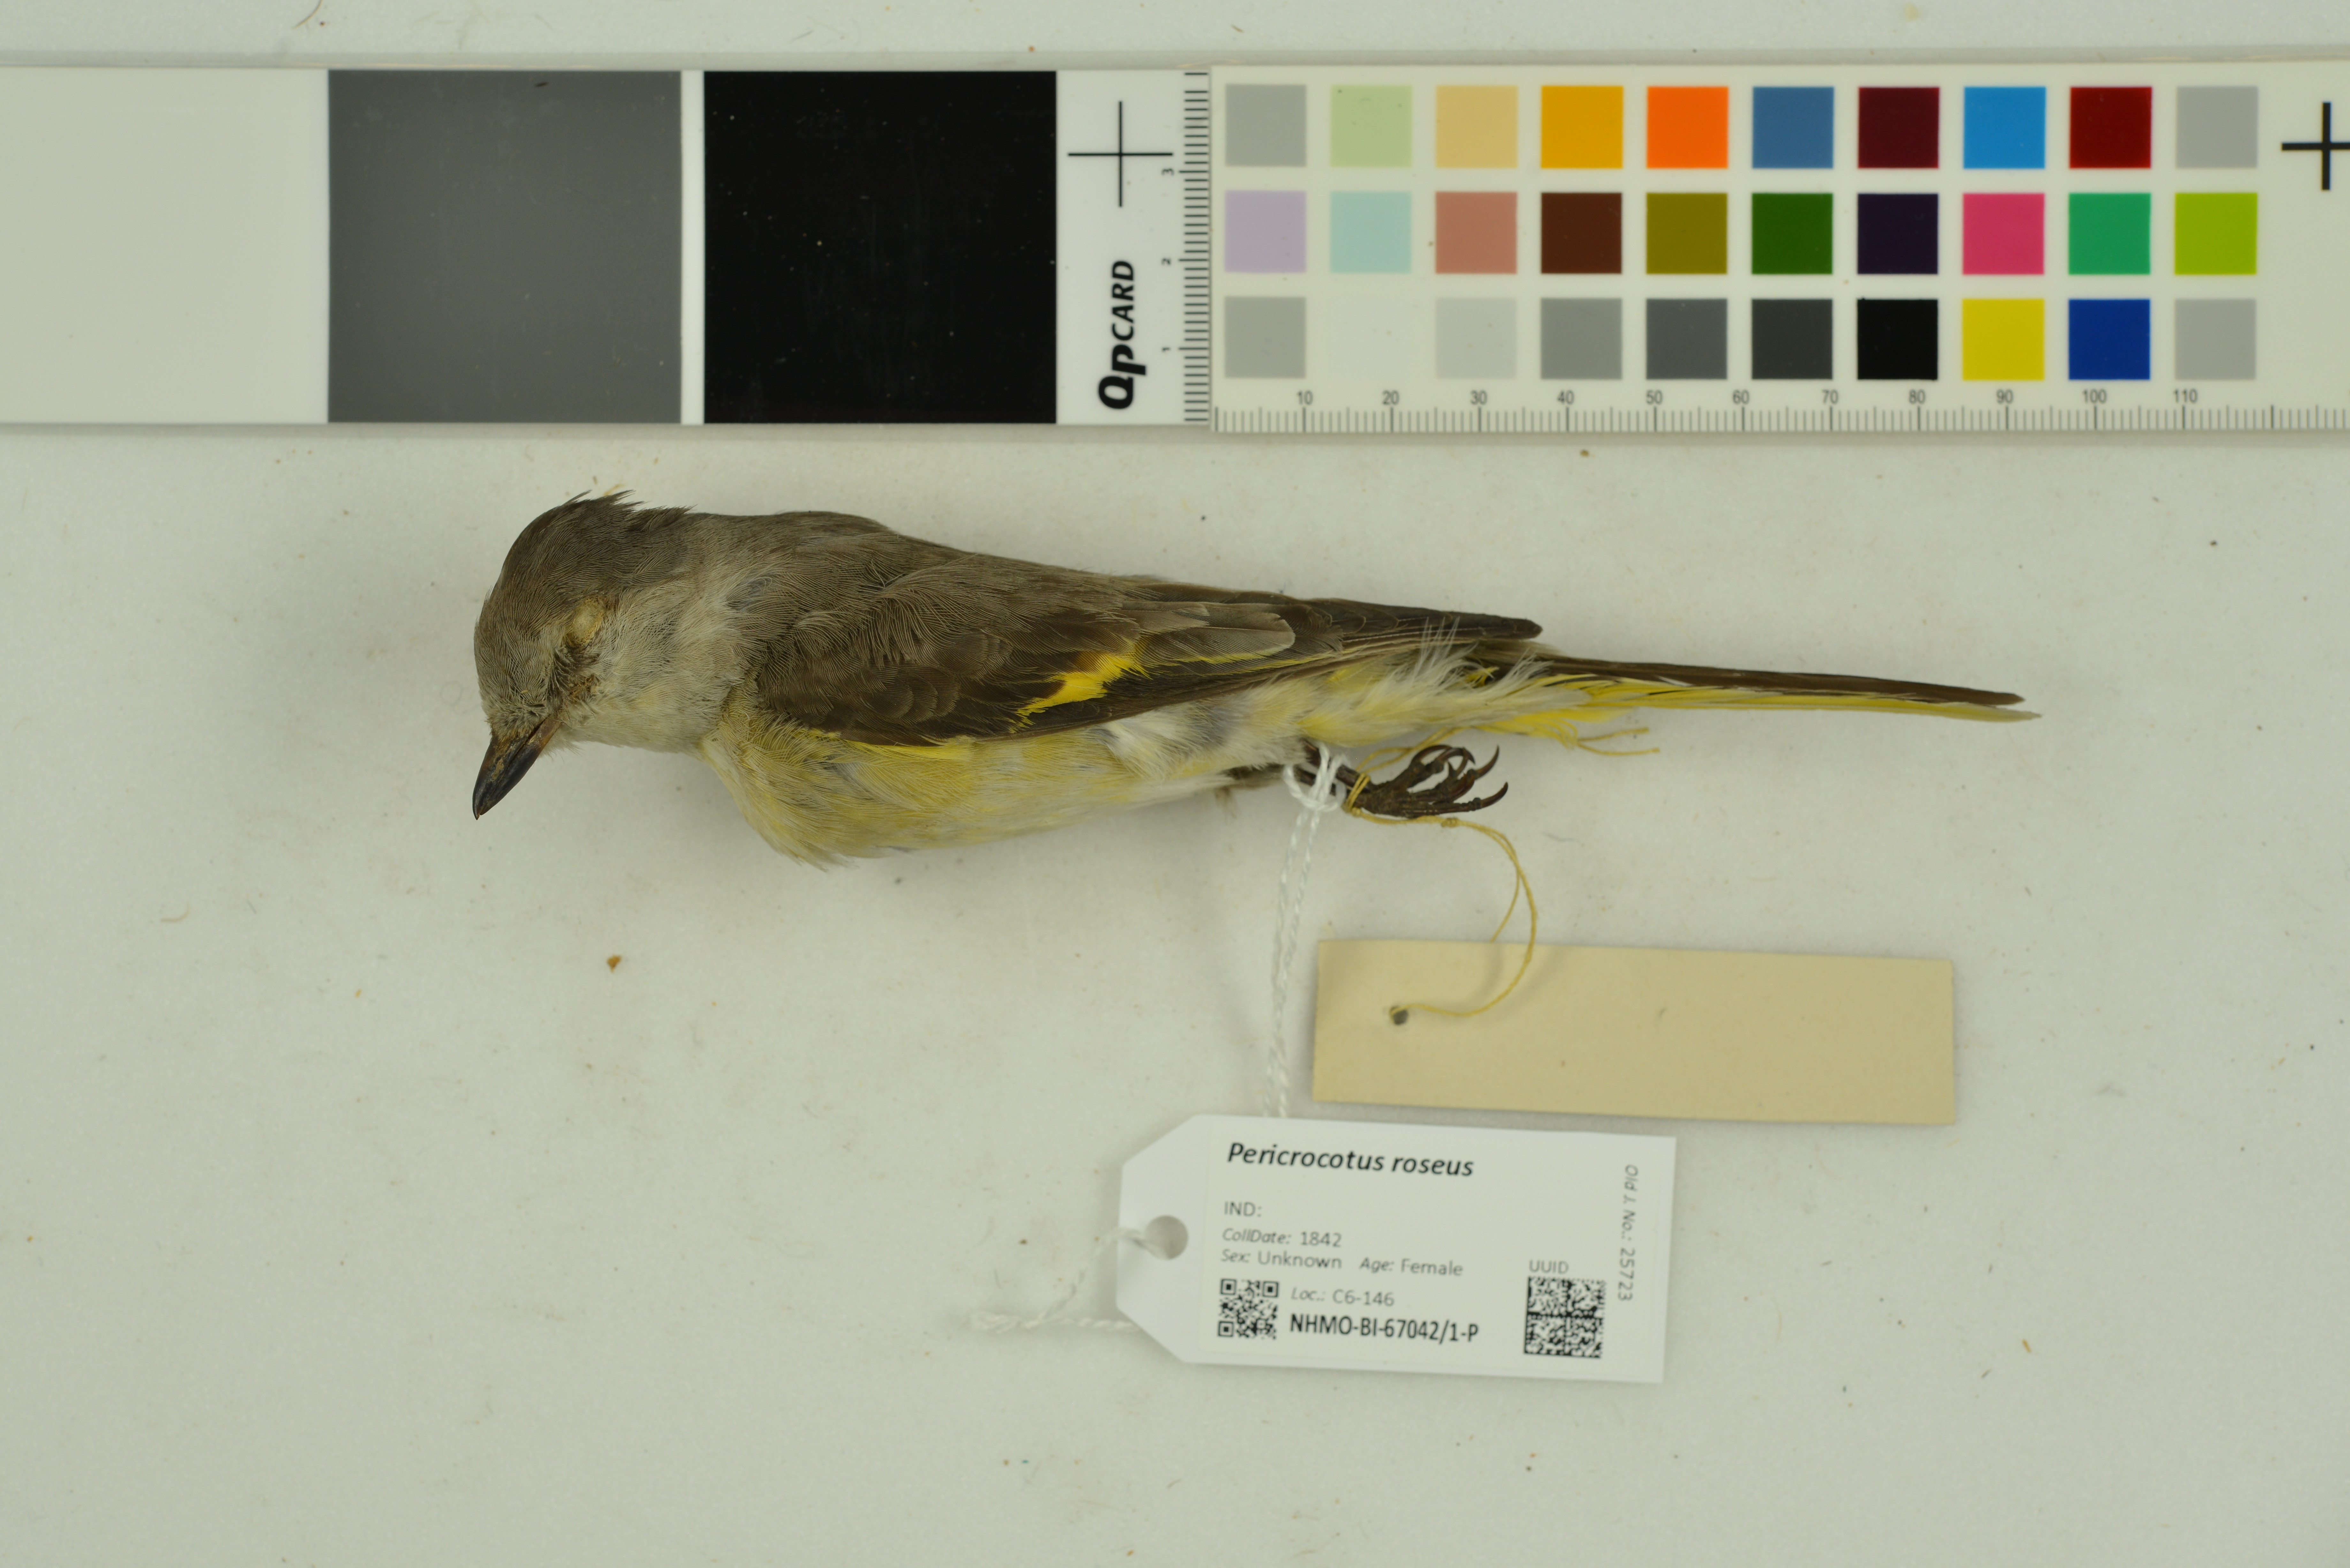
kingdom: Animalia
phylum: Chordata
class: Aves
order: Passeriformes
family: Campephagidae
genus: Pericrocotus
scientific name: Pericrocotus roseus
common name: Rosy minivet
